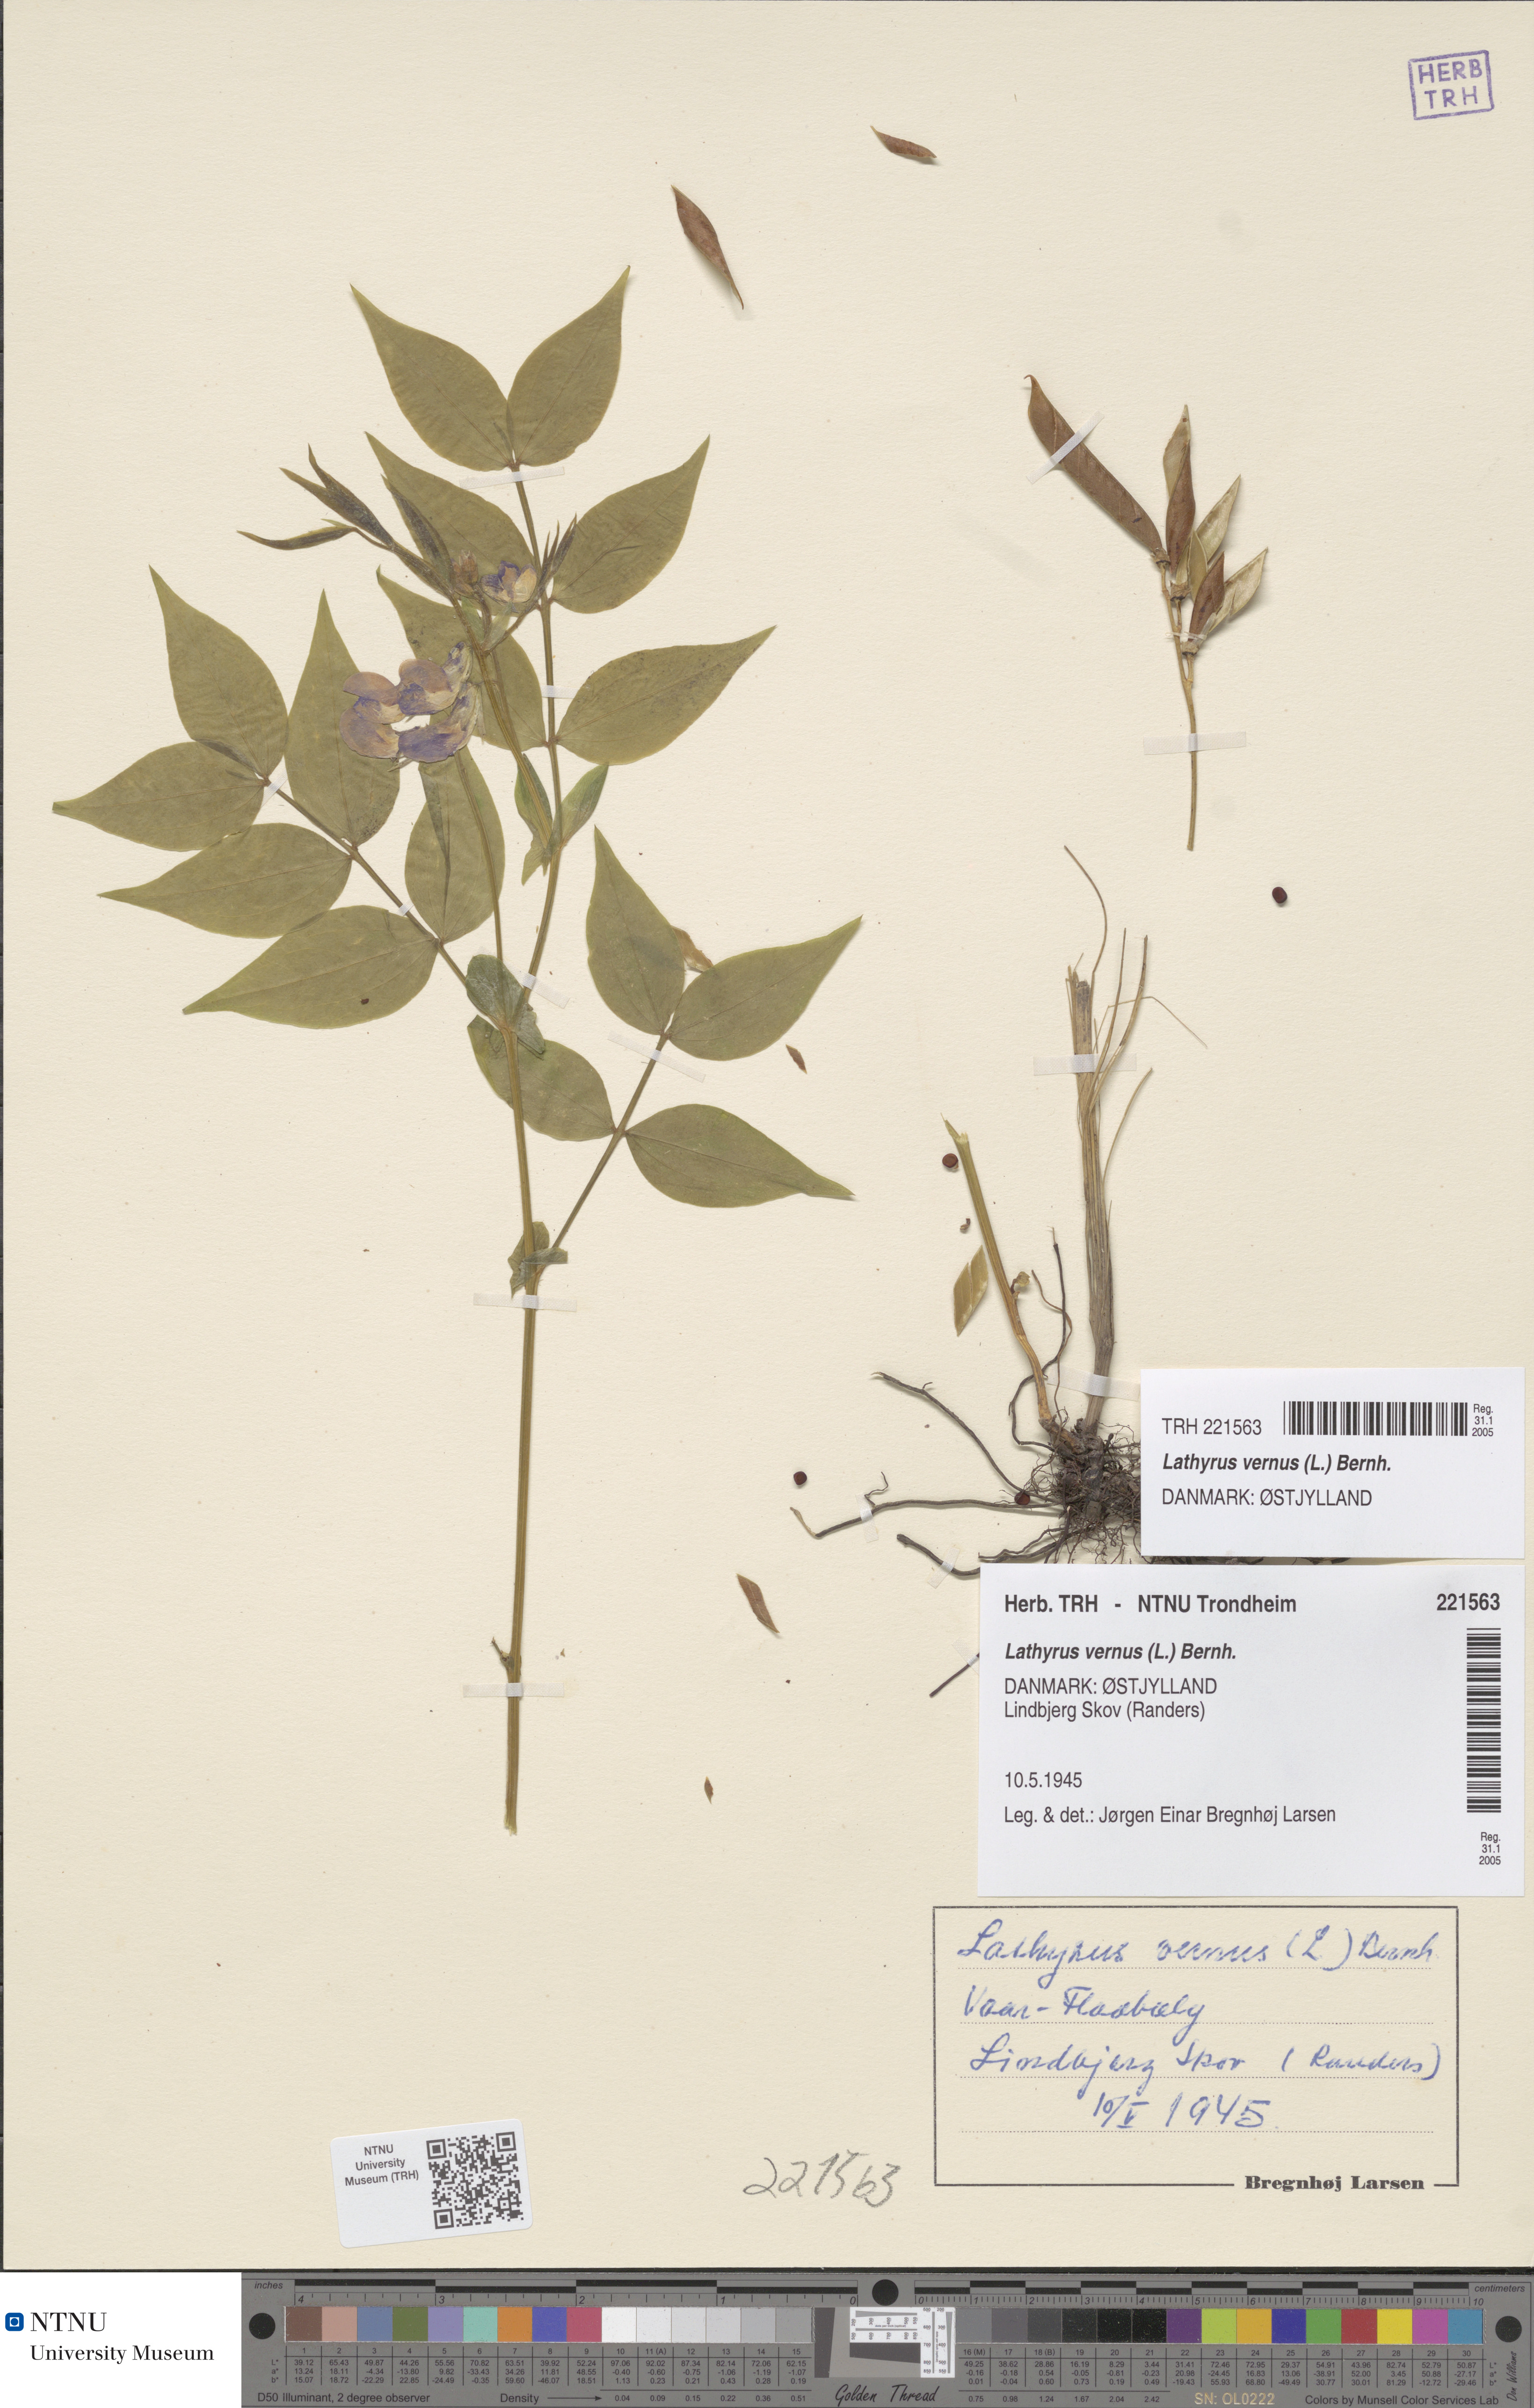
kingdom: Plantae
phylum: Tracheophyta
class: Magnoliopsida
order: Fabales
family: Fabaceae
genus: Lathyrus
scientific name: Lathyrus vernus
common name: Spring pea
